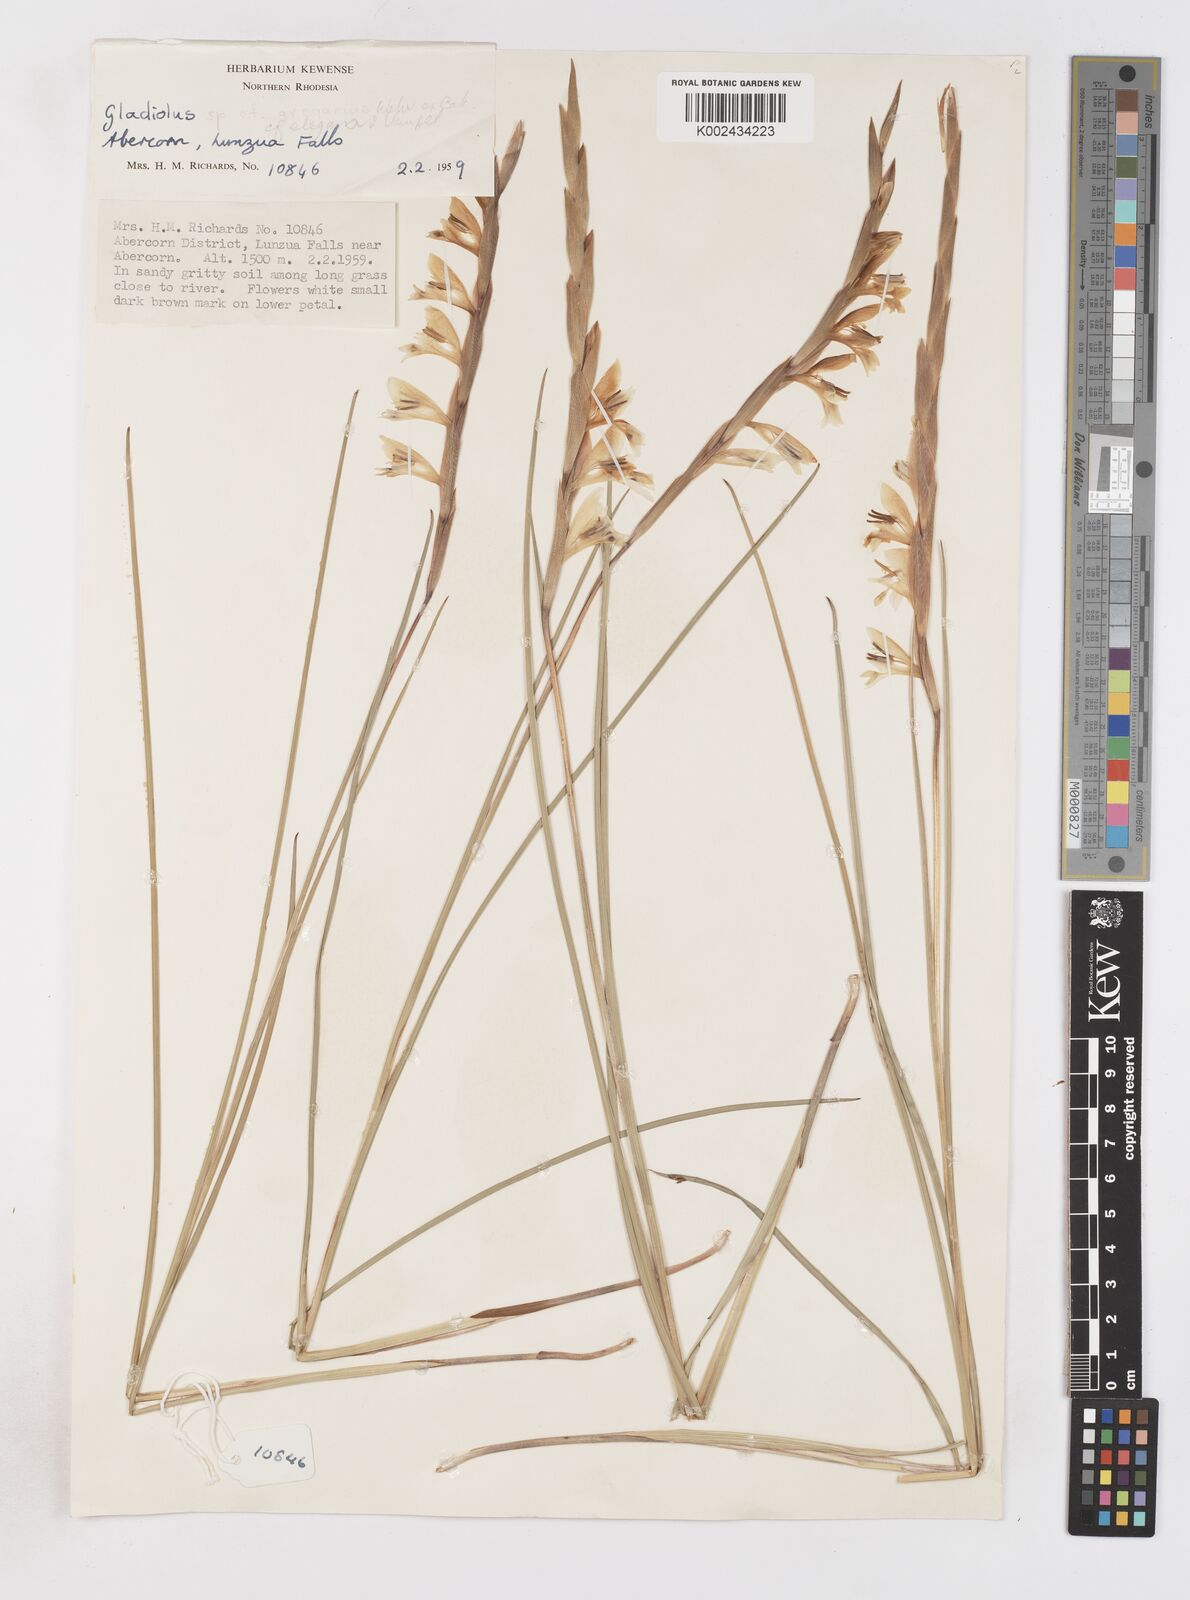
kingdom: Plantae
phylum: Tracheophyta
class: Liliopsida
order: Asparagales
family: Iridaceae
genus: Gladiolus
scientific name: Gladiolus gregarius
